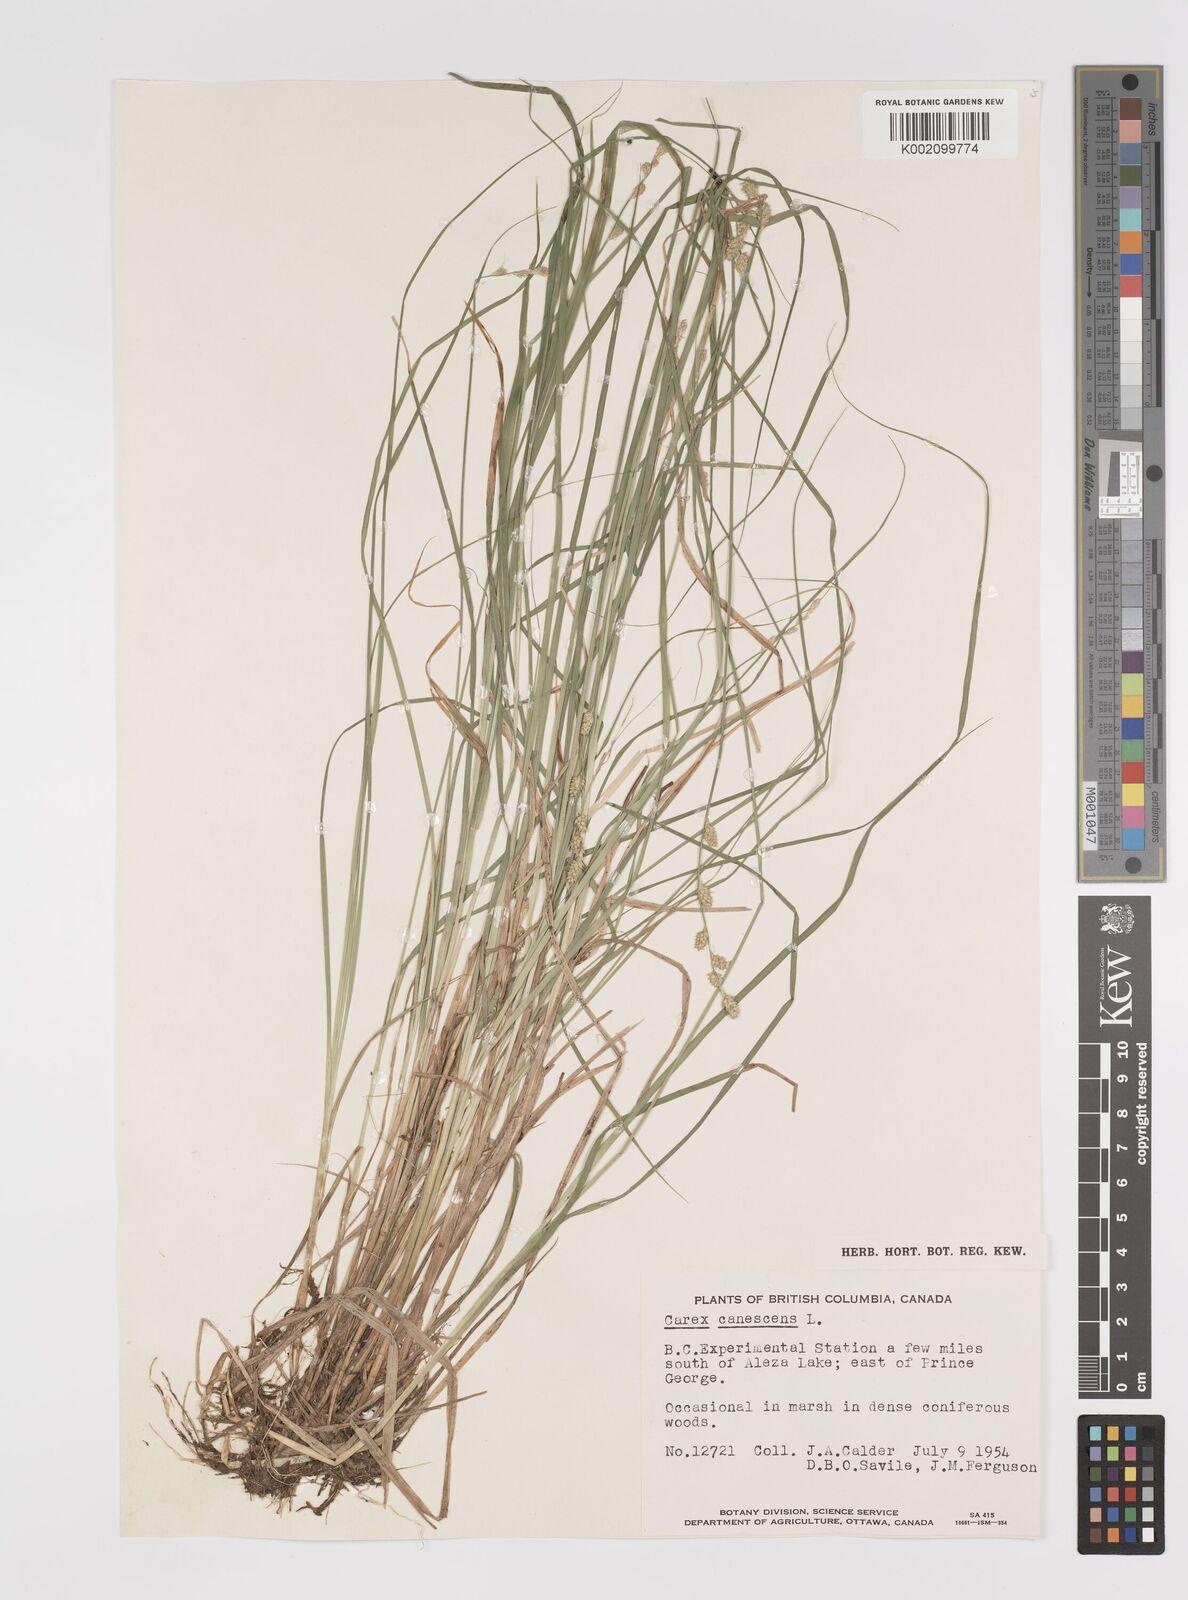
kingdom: Plantae
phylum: Tracheophyta
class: Liliopsida
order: Poales
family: Cyperaceae
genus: Carex
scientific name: Carex curta
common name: White sedge
